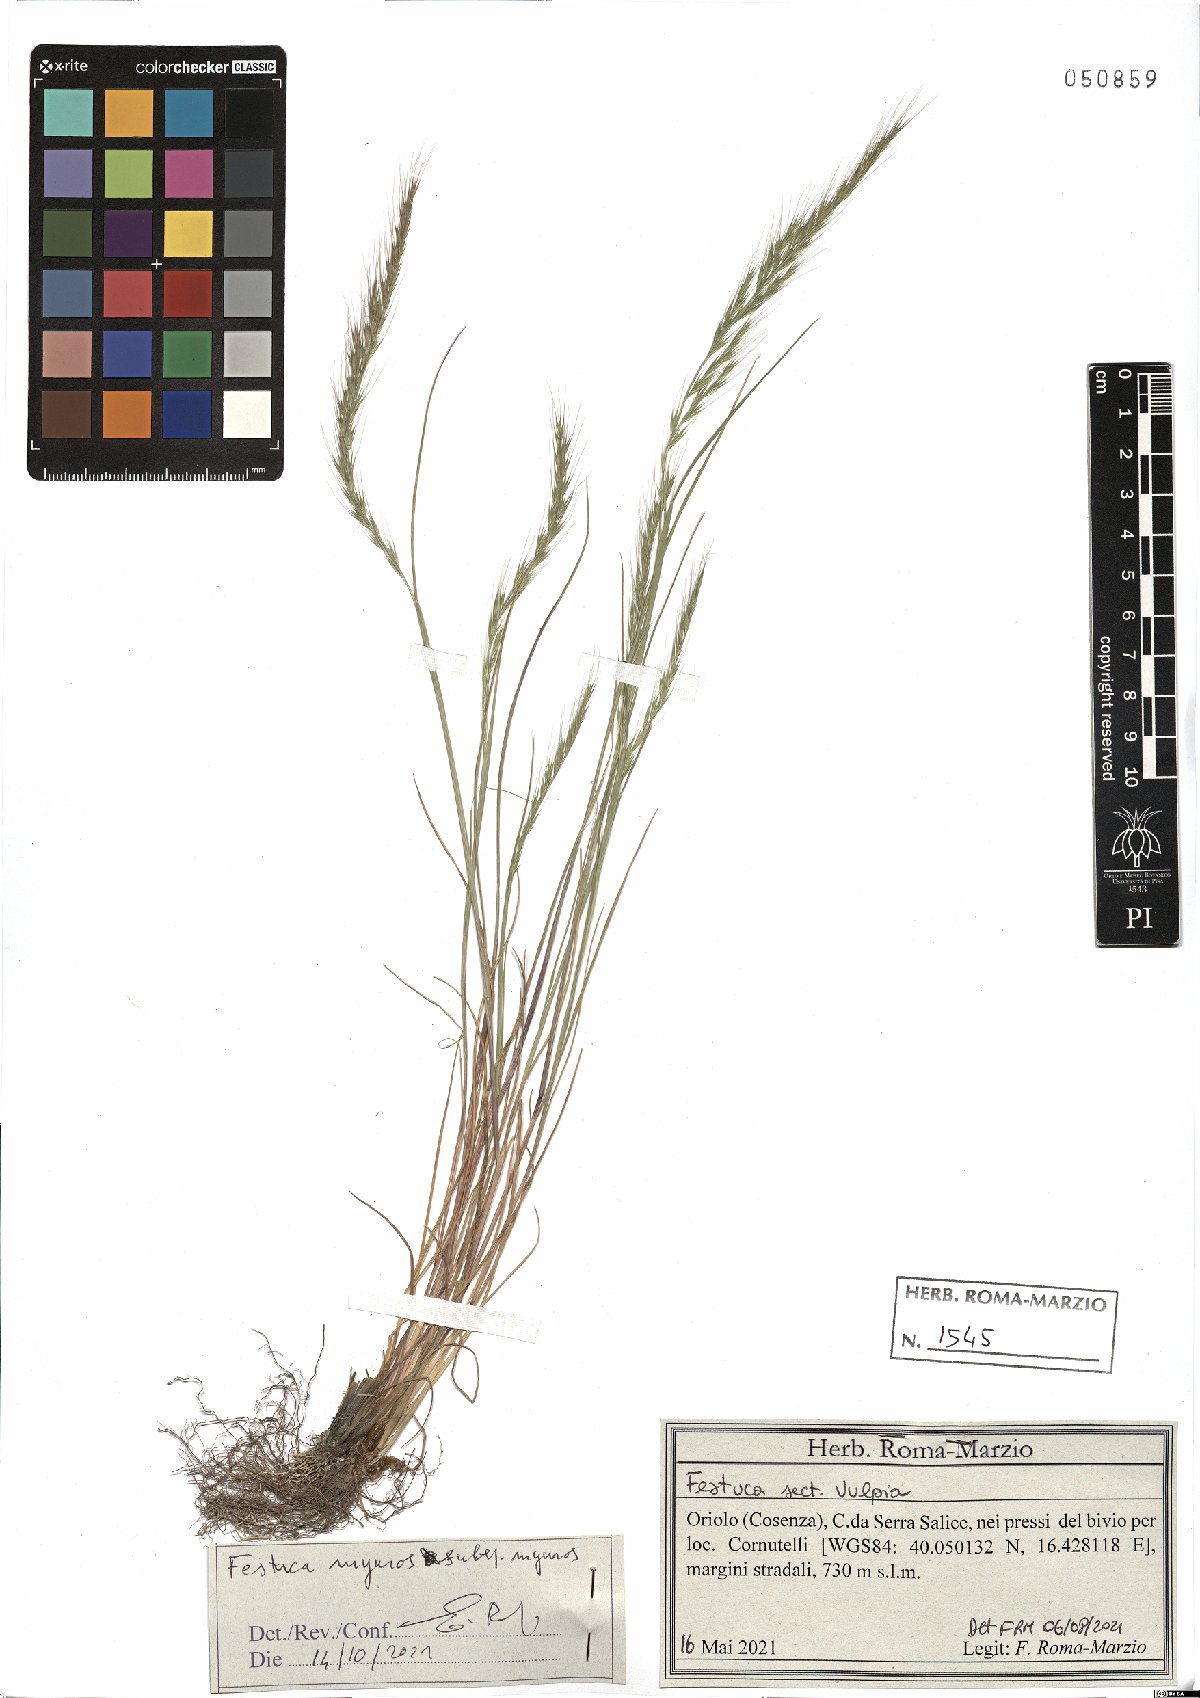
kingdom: Plantae
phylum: Tracheophyta
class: Liliopsida
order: Poales
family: Poaceae
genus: Festuca
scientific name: Festuca myuros
